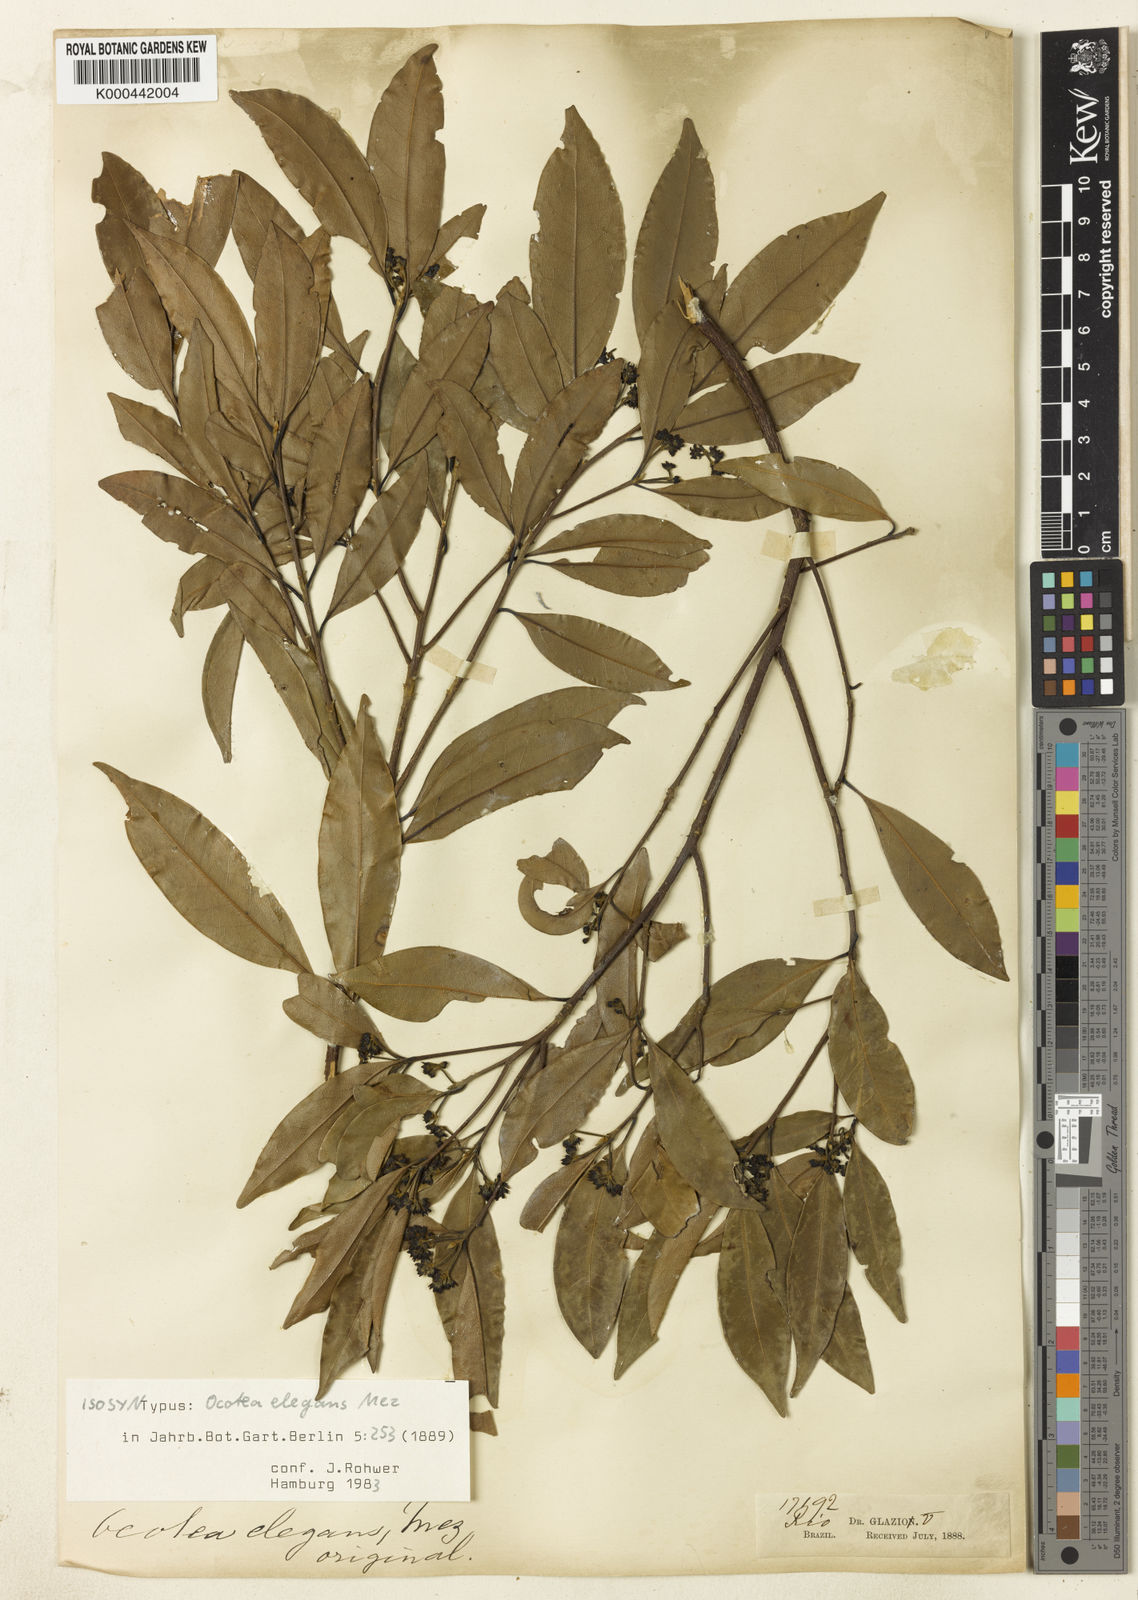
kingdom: Plantae
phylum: Tracheophyta
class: Magnoliopsida
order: Laurales
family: Lauraceae
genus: Mespilodaphne
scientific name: Mespilodaphne indecora
